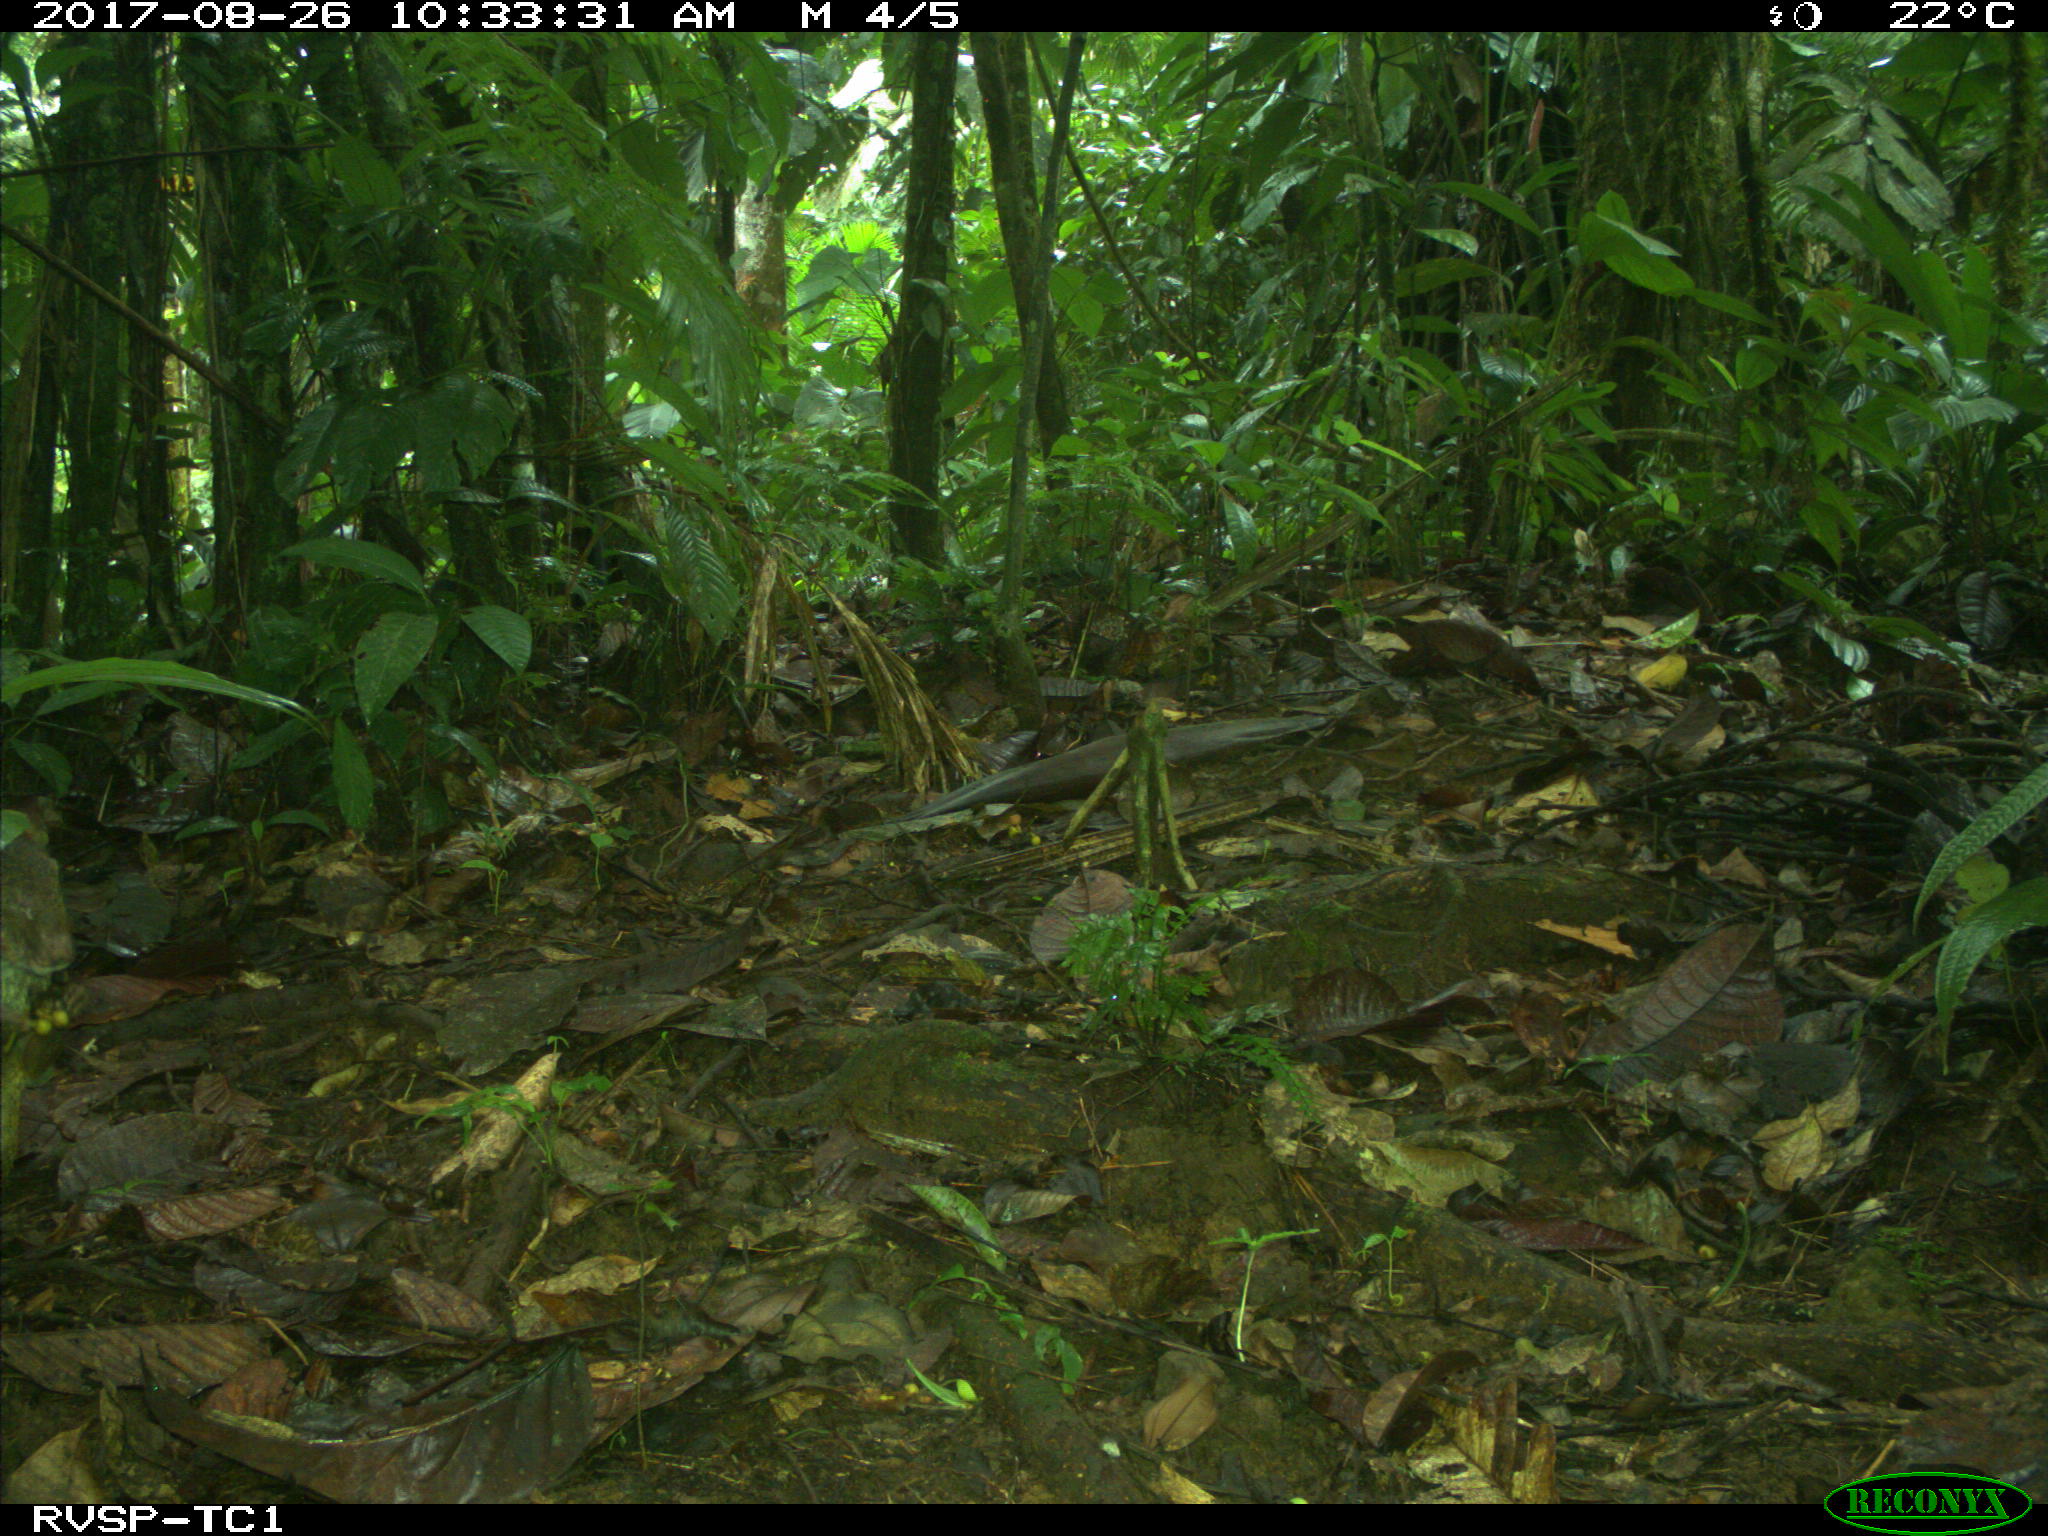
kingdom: Animalia
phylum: Chordata
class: Mammalia
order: Rodentia
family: Dasyproctidae
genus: Dasyprocta
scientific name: Dasyprocta punctata
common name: Central american agouti
